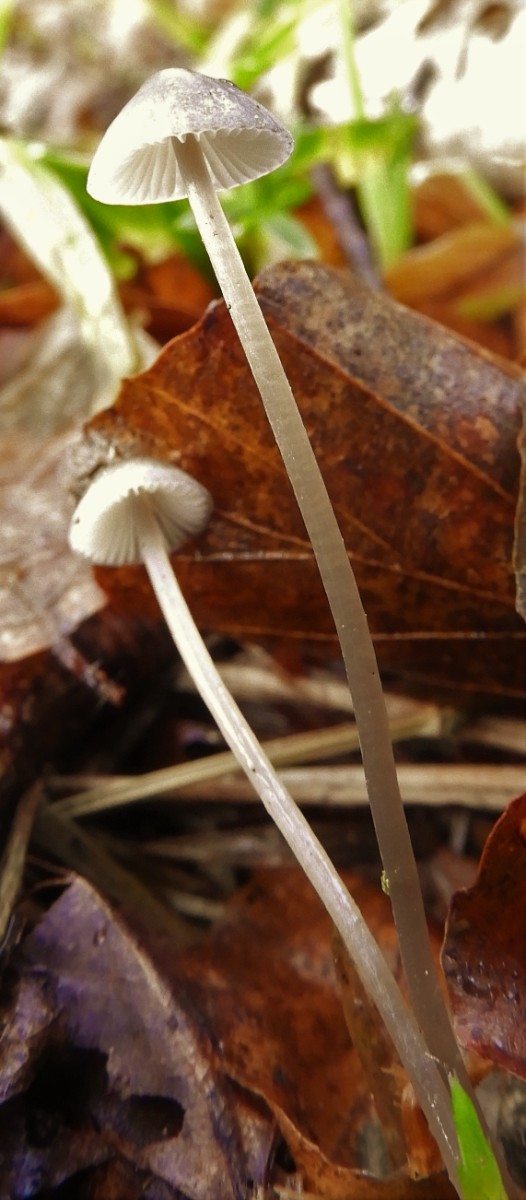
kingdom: Fungi
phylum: Basidiomycota
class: Agaricomycetes
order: Agaricales
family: Mycenaceae
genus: Mycena
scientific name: Mycena vitilis
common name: blankstokket huesvamp
